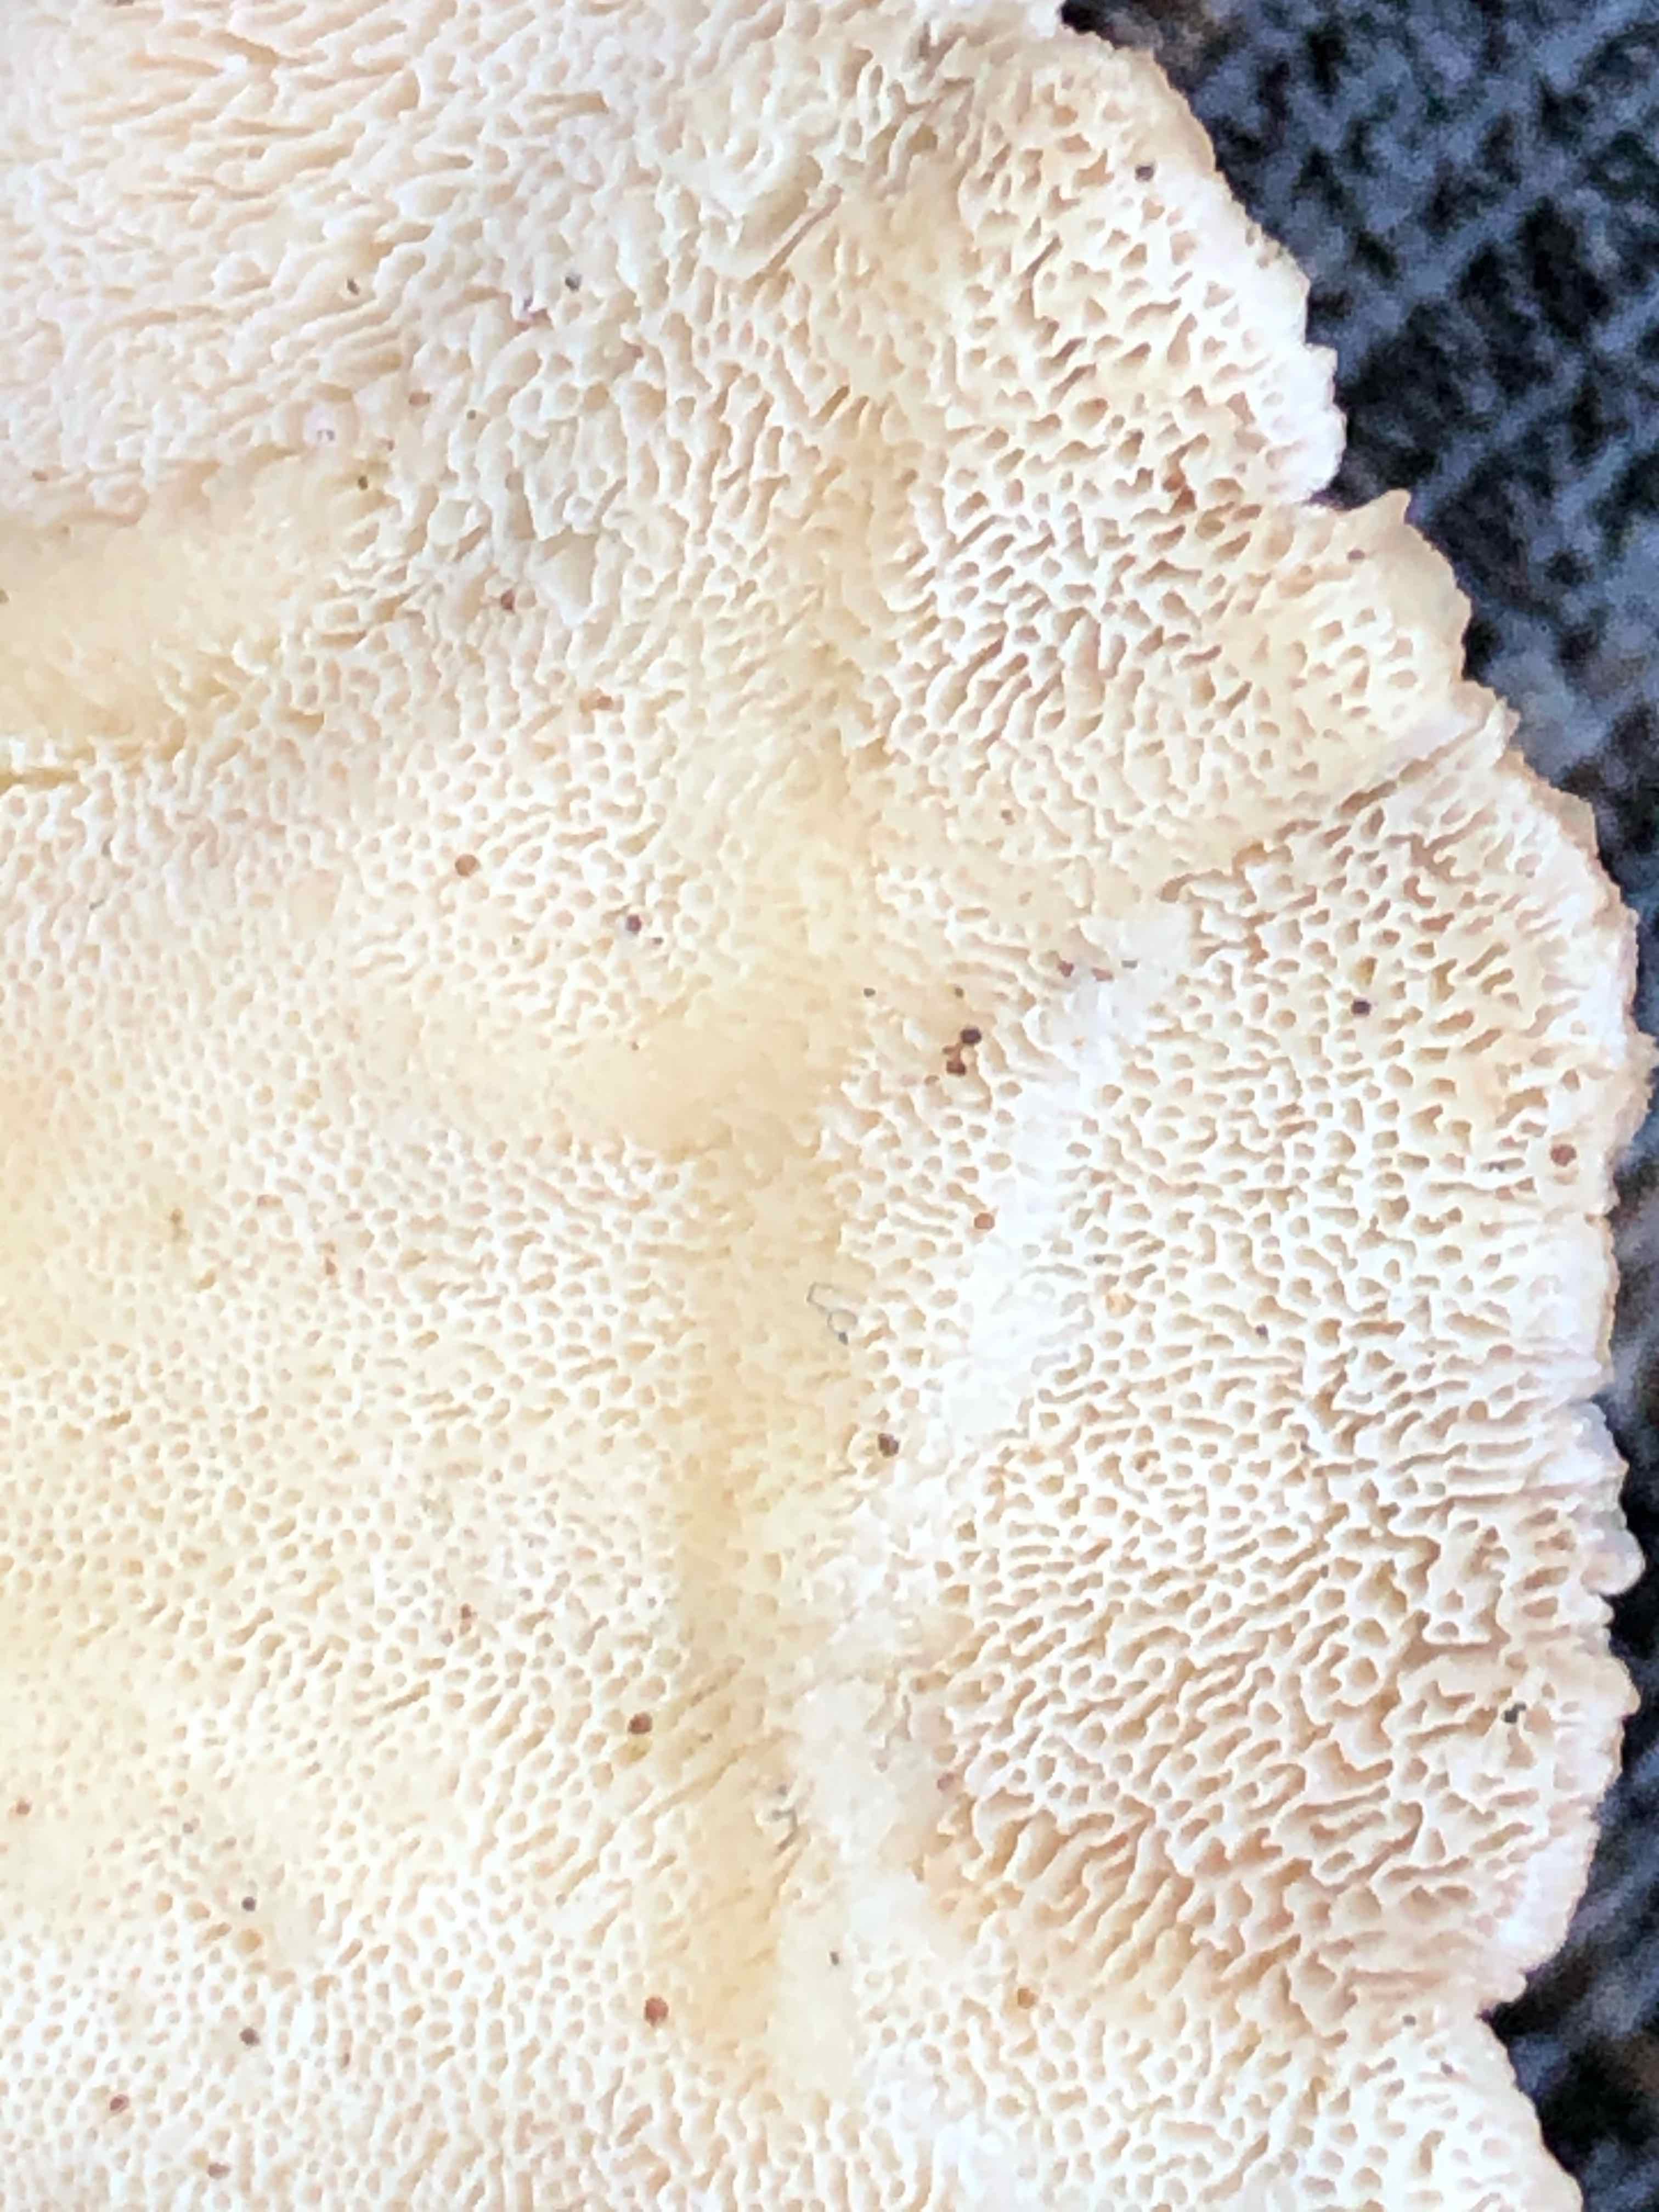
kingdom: Fungi
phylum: Basidiomycota
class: Agaricomycetes
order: Polyporales
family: Polyporaceae
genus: Trametes
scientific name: Trametes versicolor
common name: broget læderporesvamp
